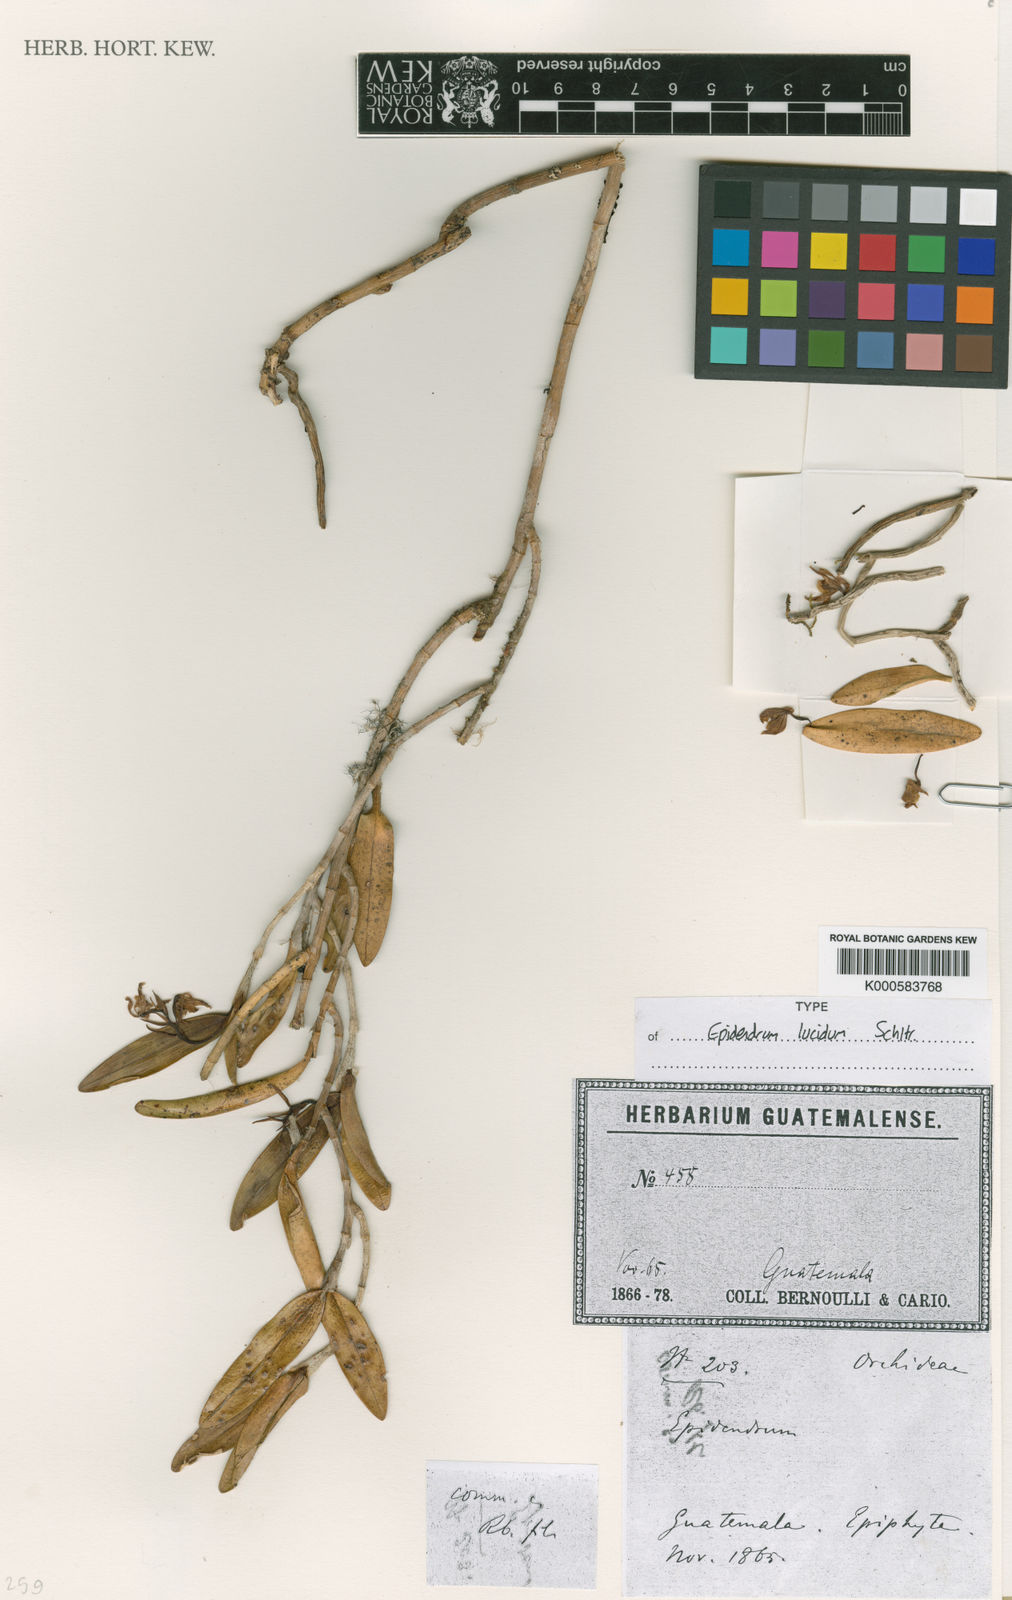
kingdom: Plantae
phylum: Tracheophyta
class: Liliopsida
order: Asparagales
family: Orchidaceae
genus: Epidendrum
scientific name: Epidendrum propinquum
